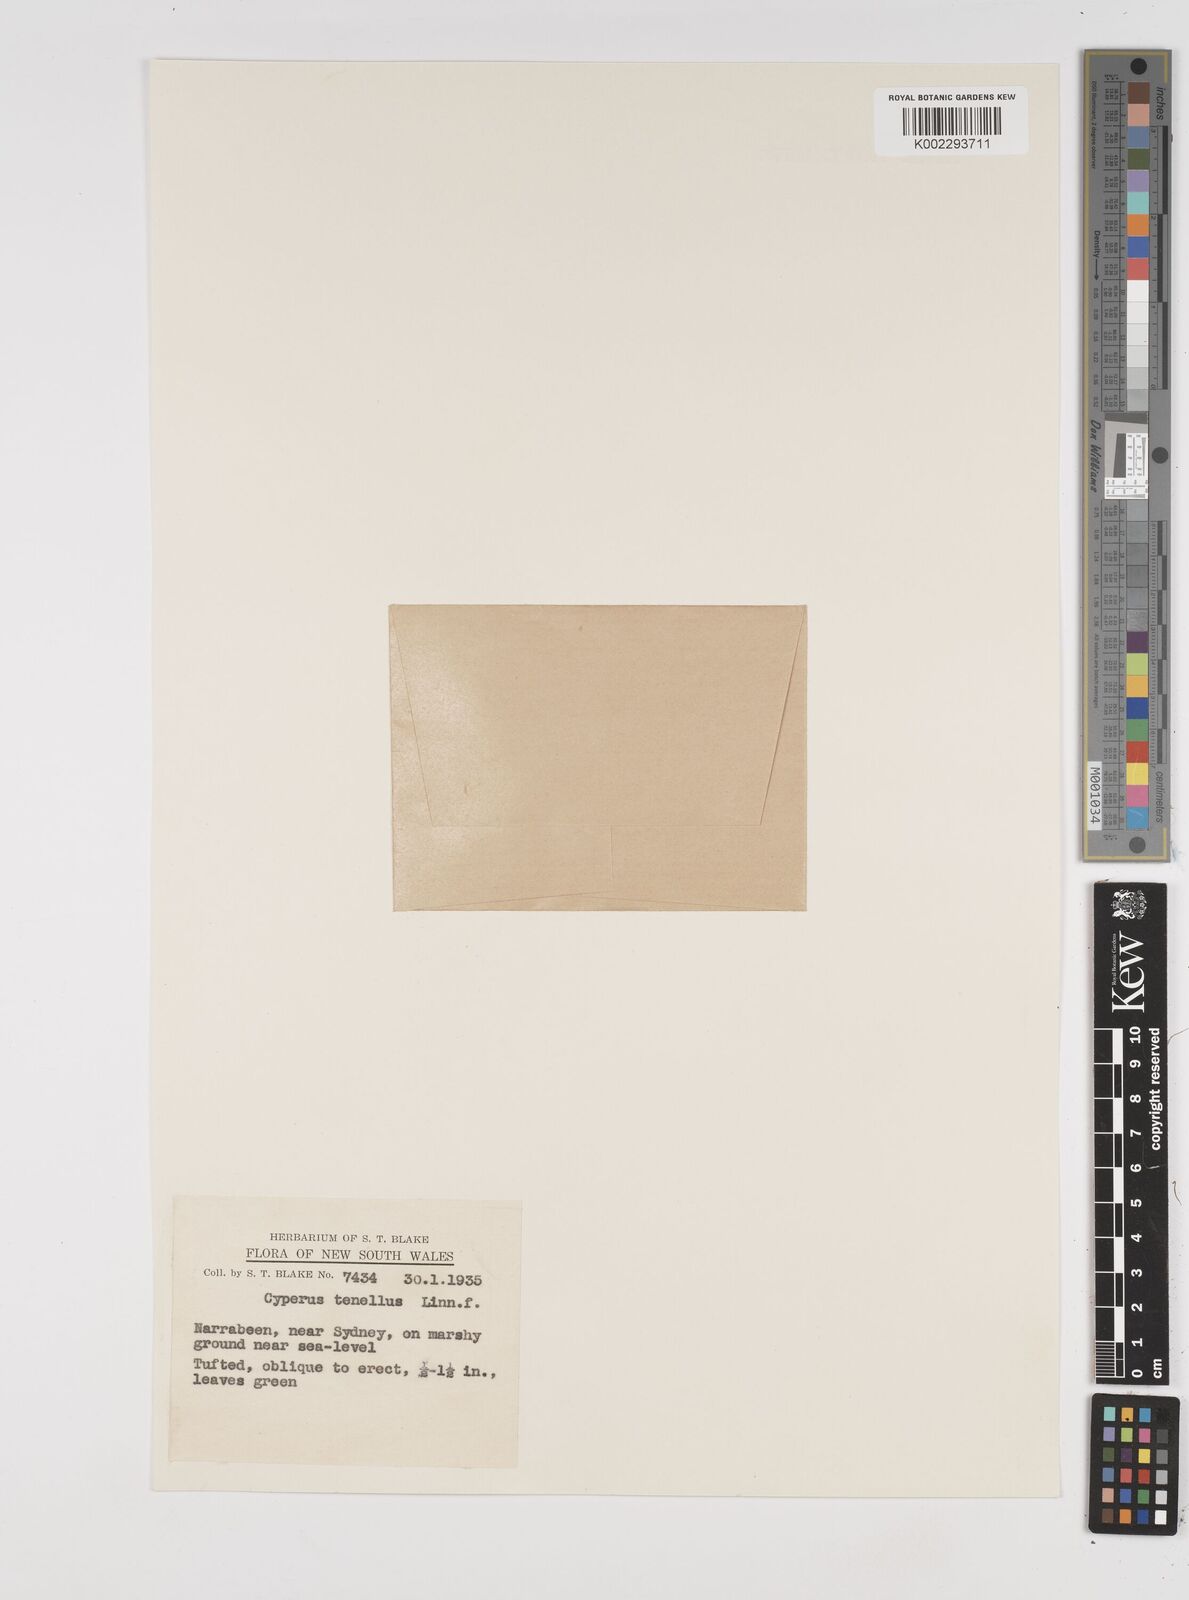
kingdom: Plantae
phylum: Tracheophyta
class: Liliopsida
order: Poales
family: Cyperaceae
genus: Isolepis
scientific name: Isolepis levynsiana
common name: Sedge
